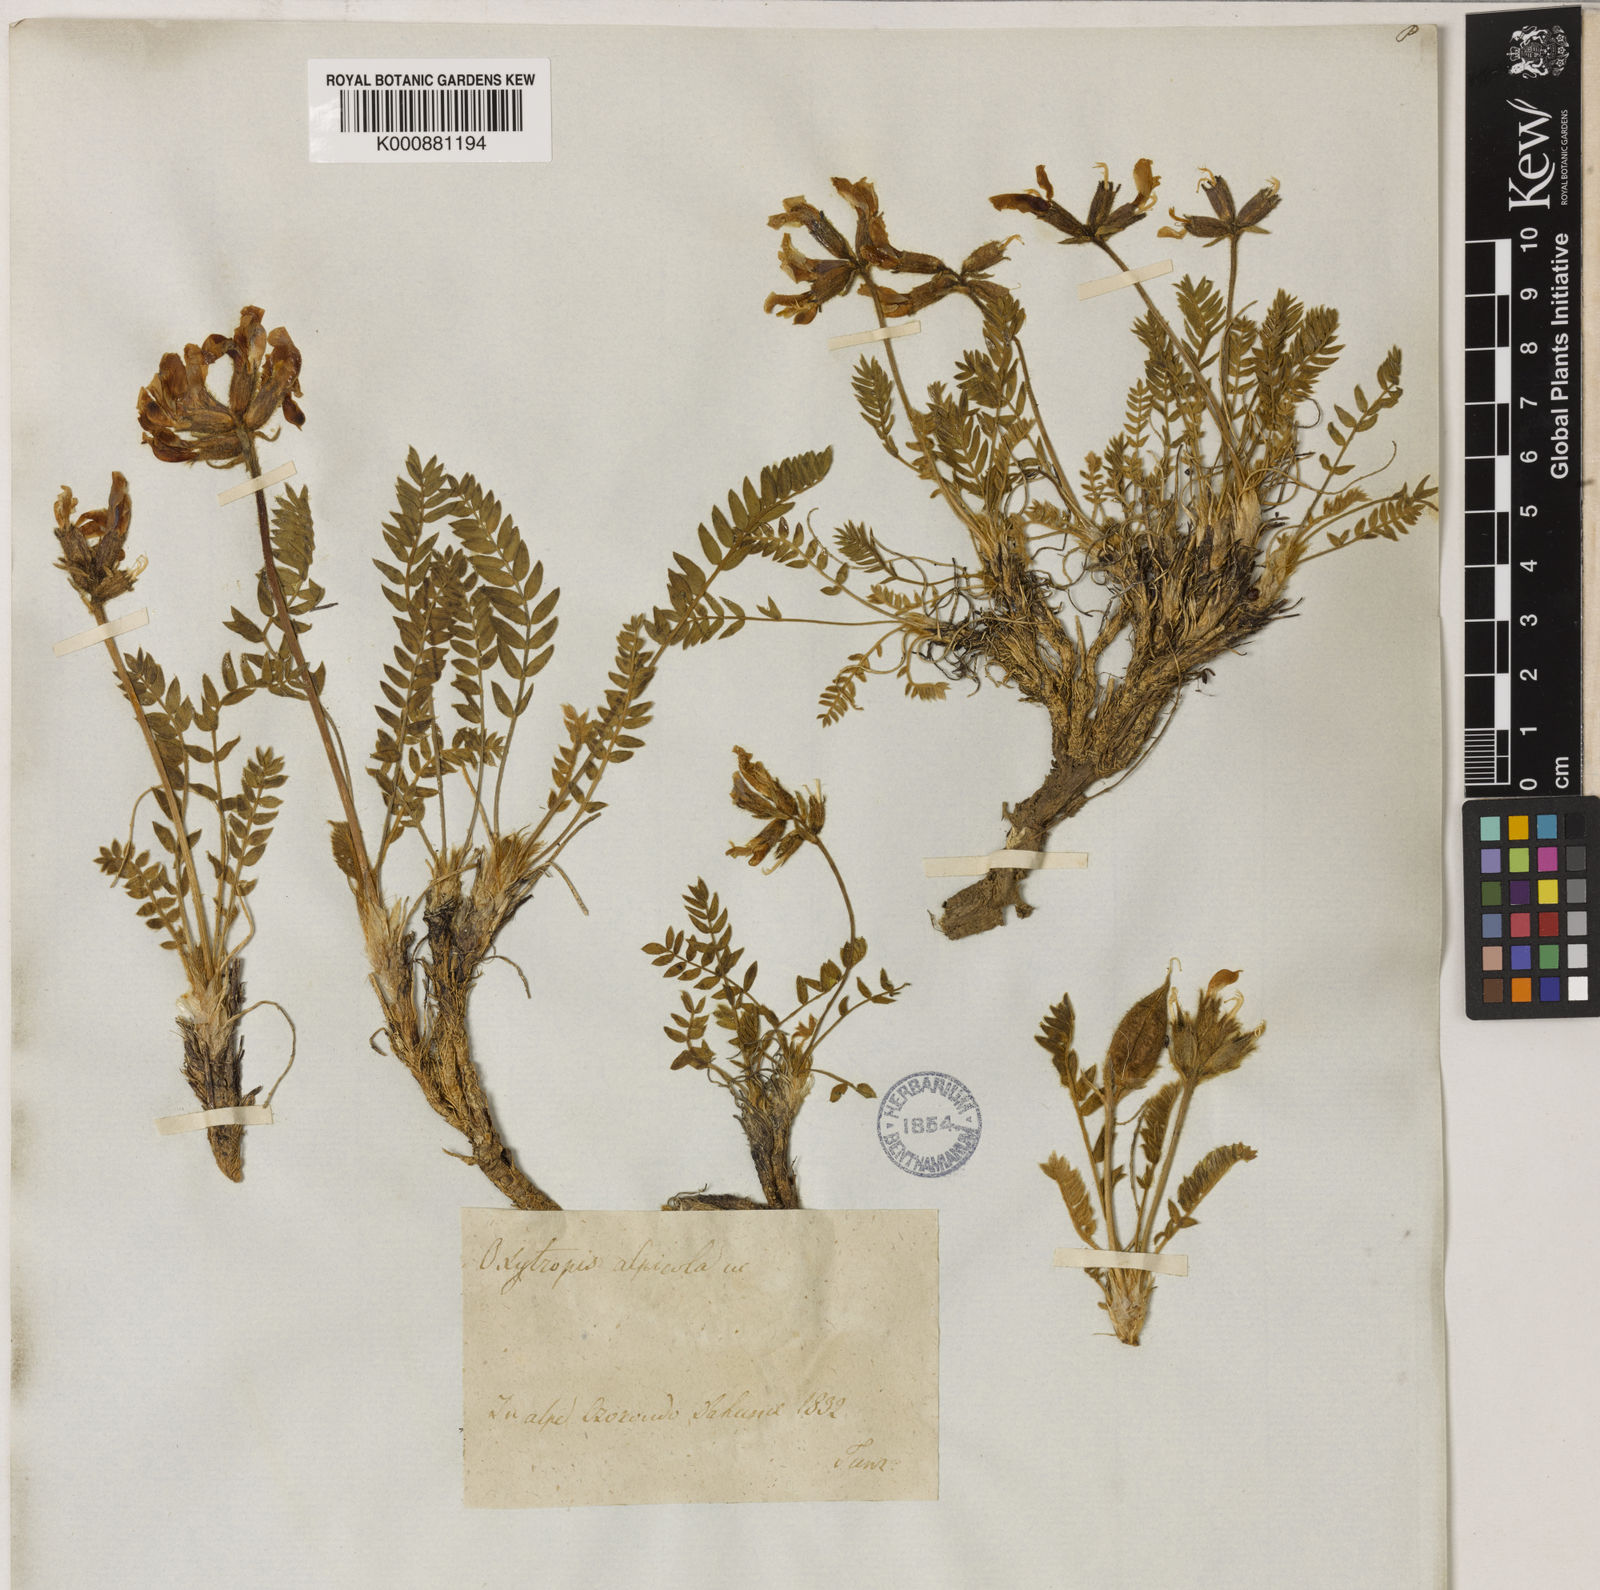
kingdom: Plantae
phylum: Tracheophyta
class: Magnoliopsida
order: Fabales
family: Fabaceae
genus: Oxytropis
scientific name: Oxytropis alpicola
